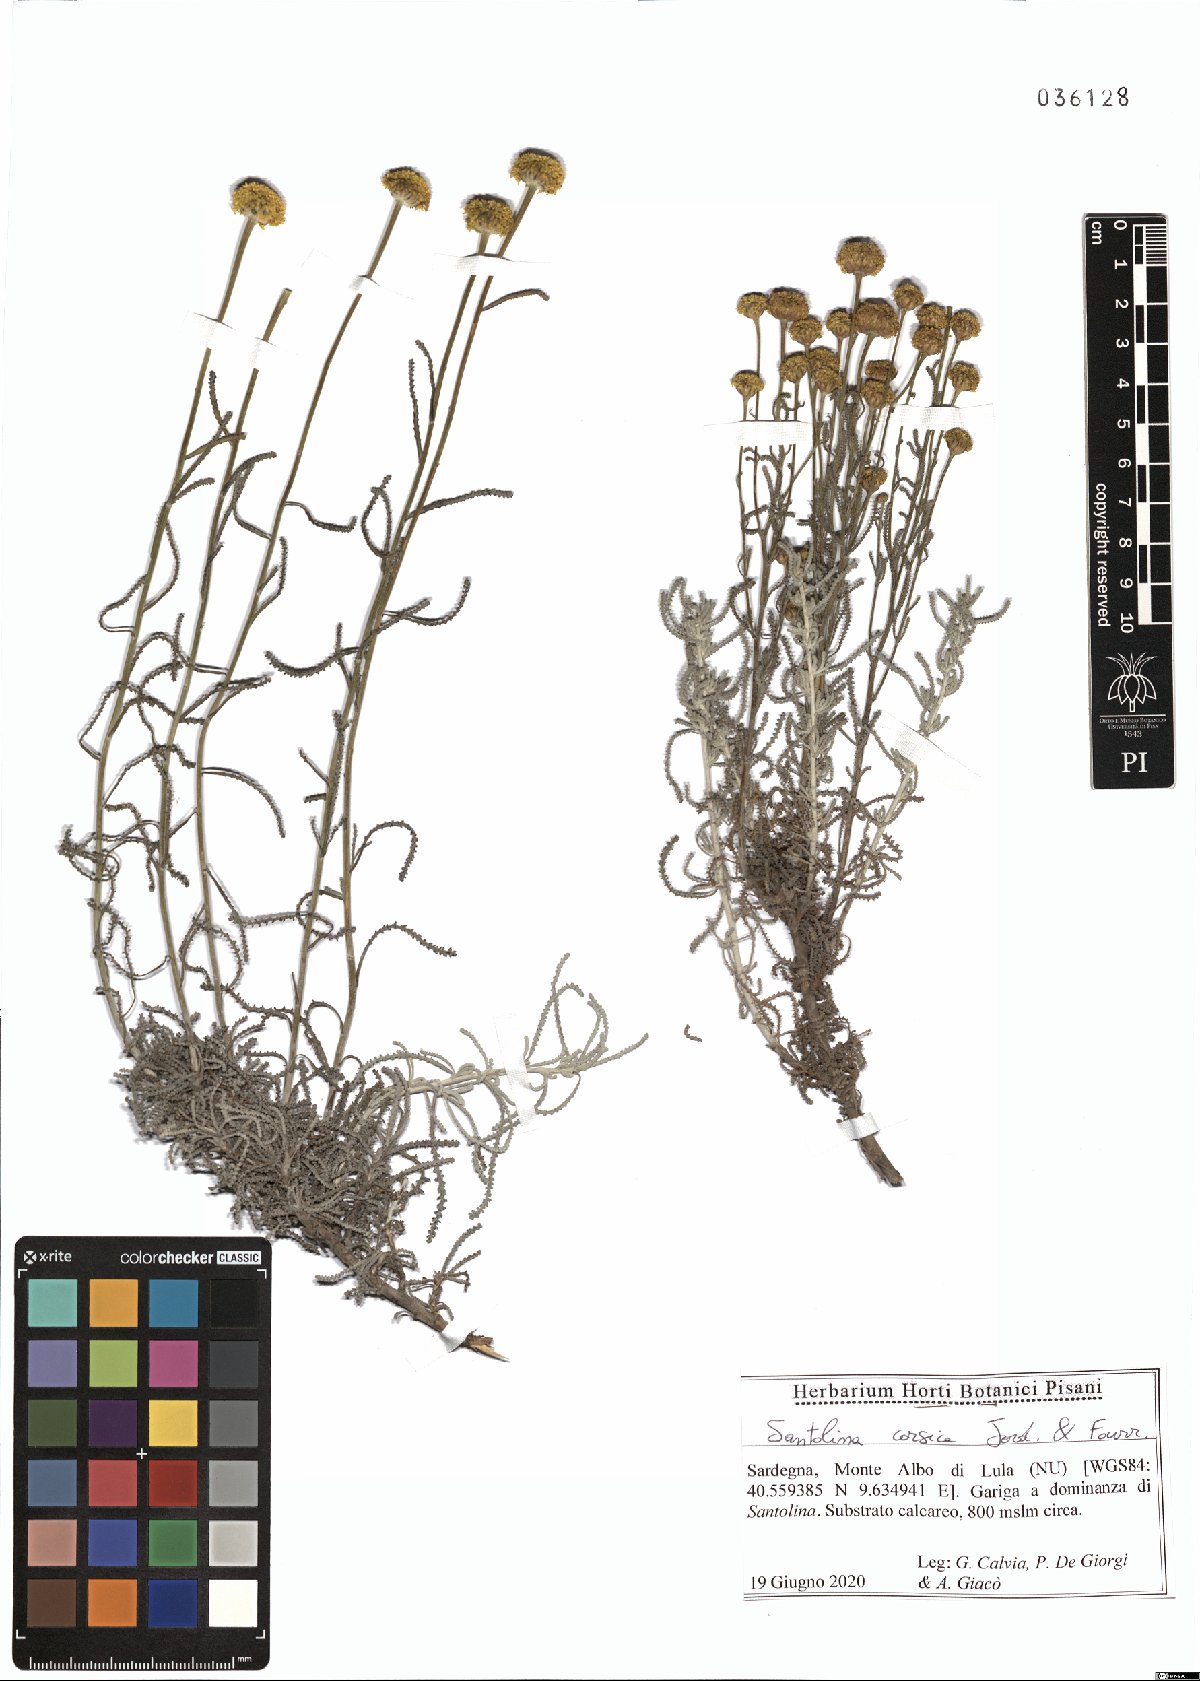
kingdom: Plantae
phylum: Tracheophyta
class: Magnoliopsida
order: Asterales
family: Asteraceae
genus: Santolina
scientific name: Santolina corsica
